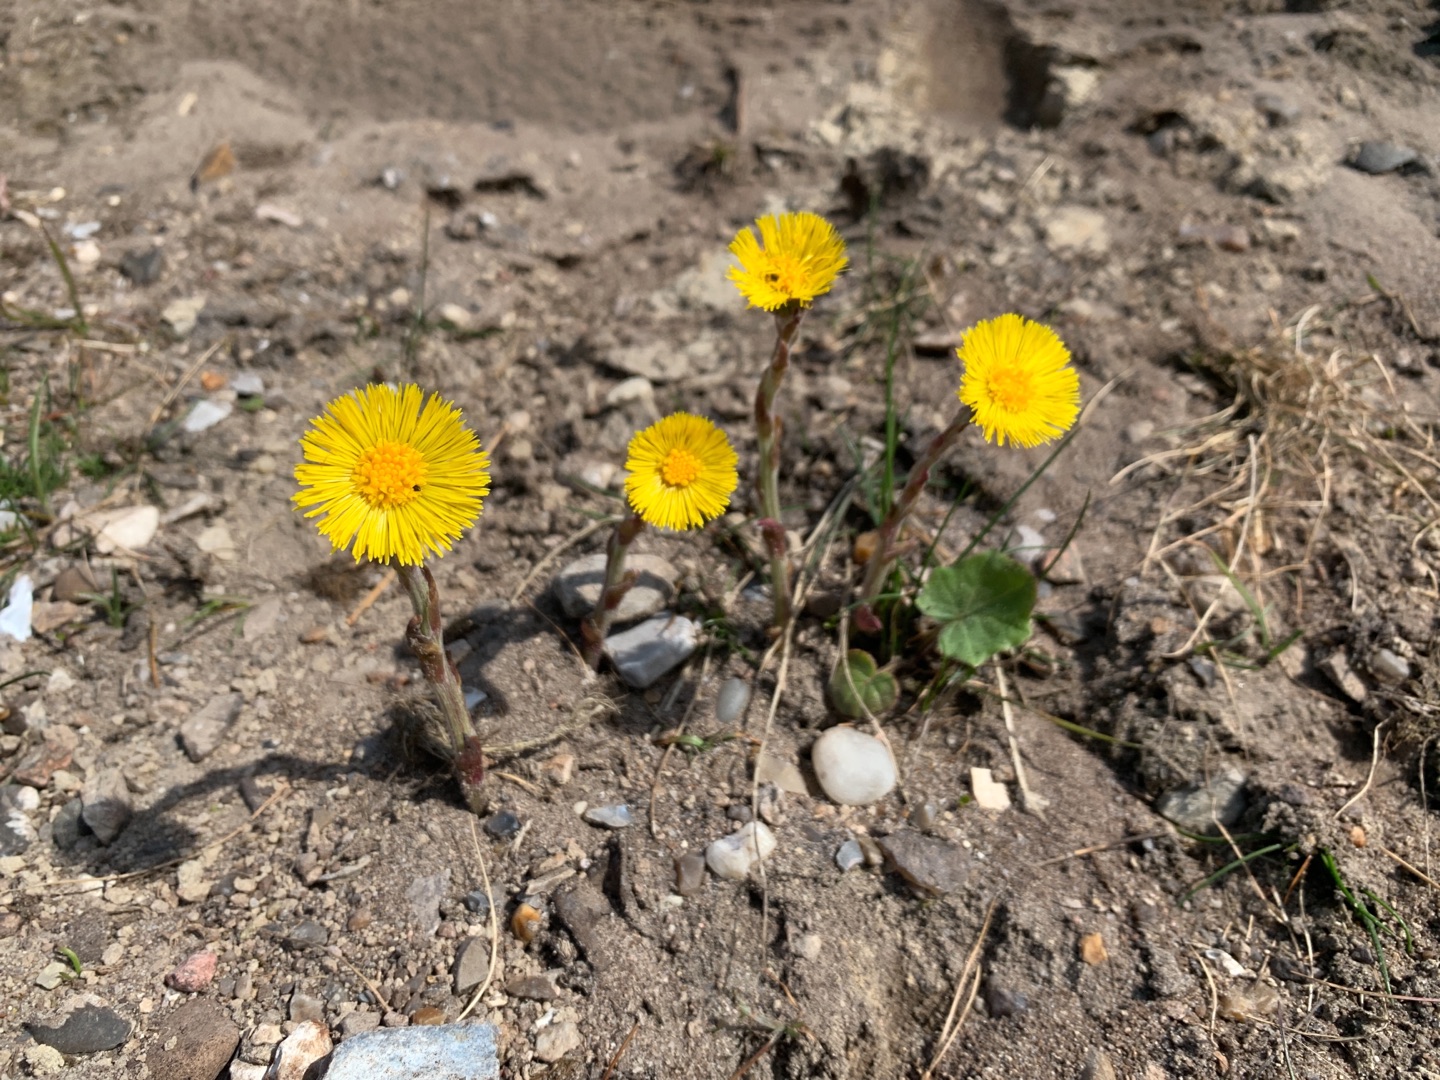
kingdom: Plantae
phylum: Tracheophyta
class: Magnoliopsida
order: Asterales
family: Asteraceae
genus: Tussilago
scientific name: Tussilago farfara
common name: Følfod
